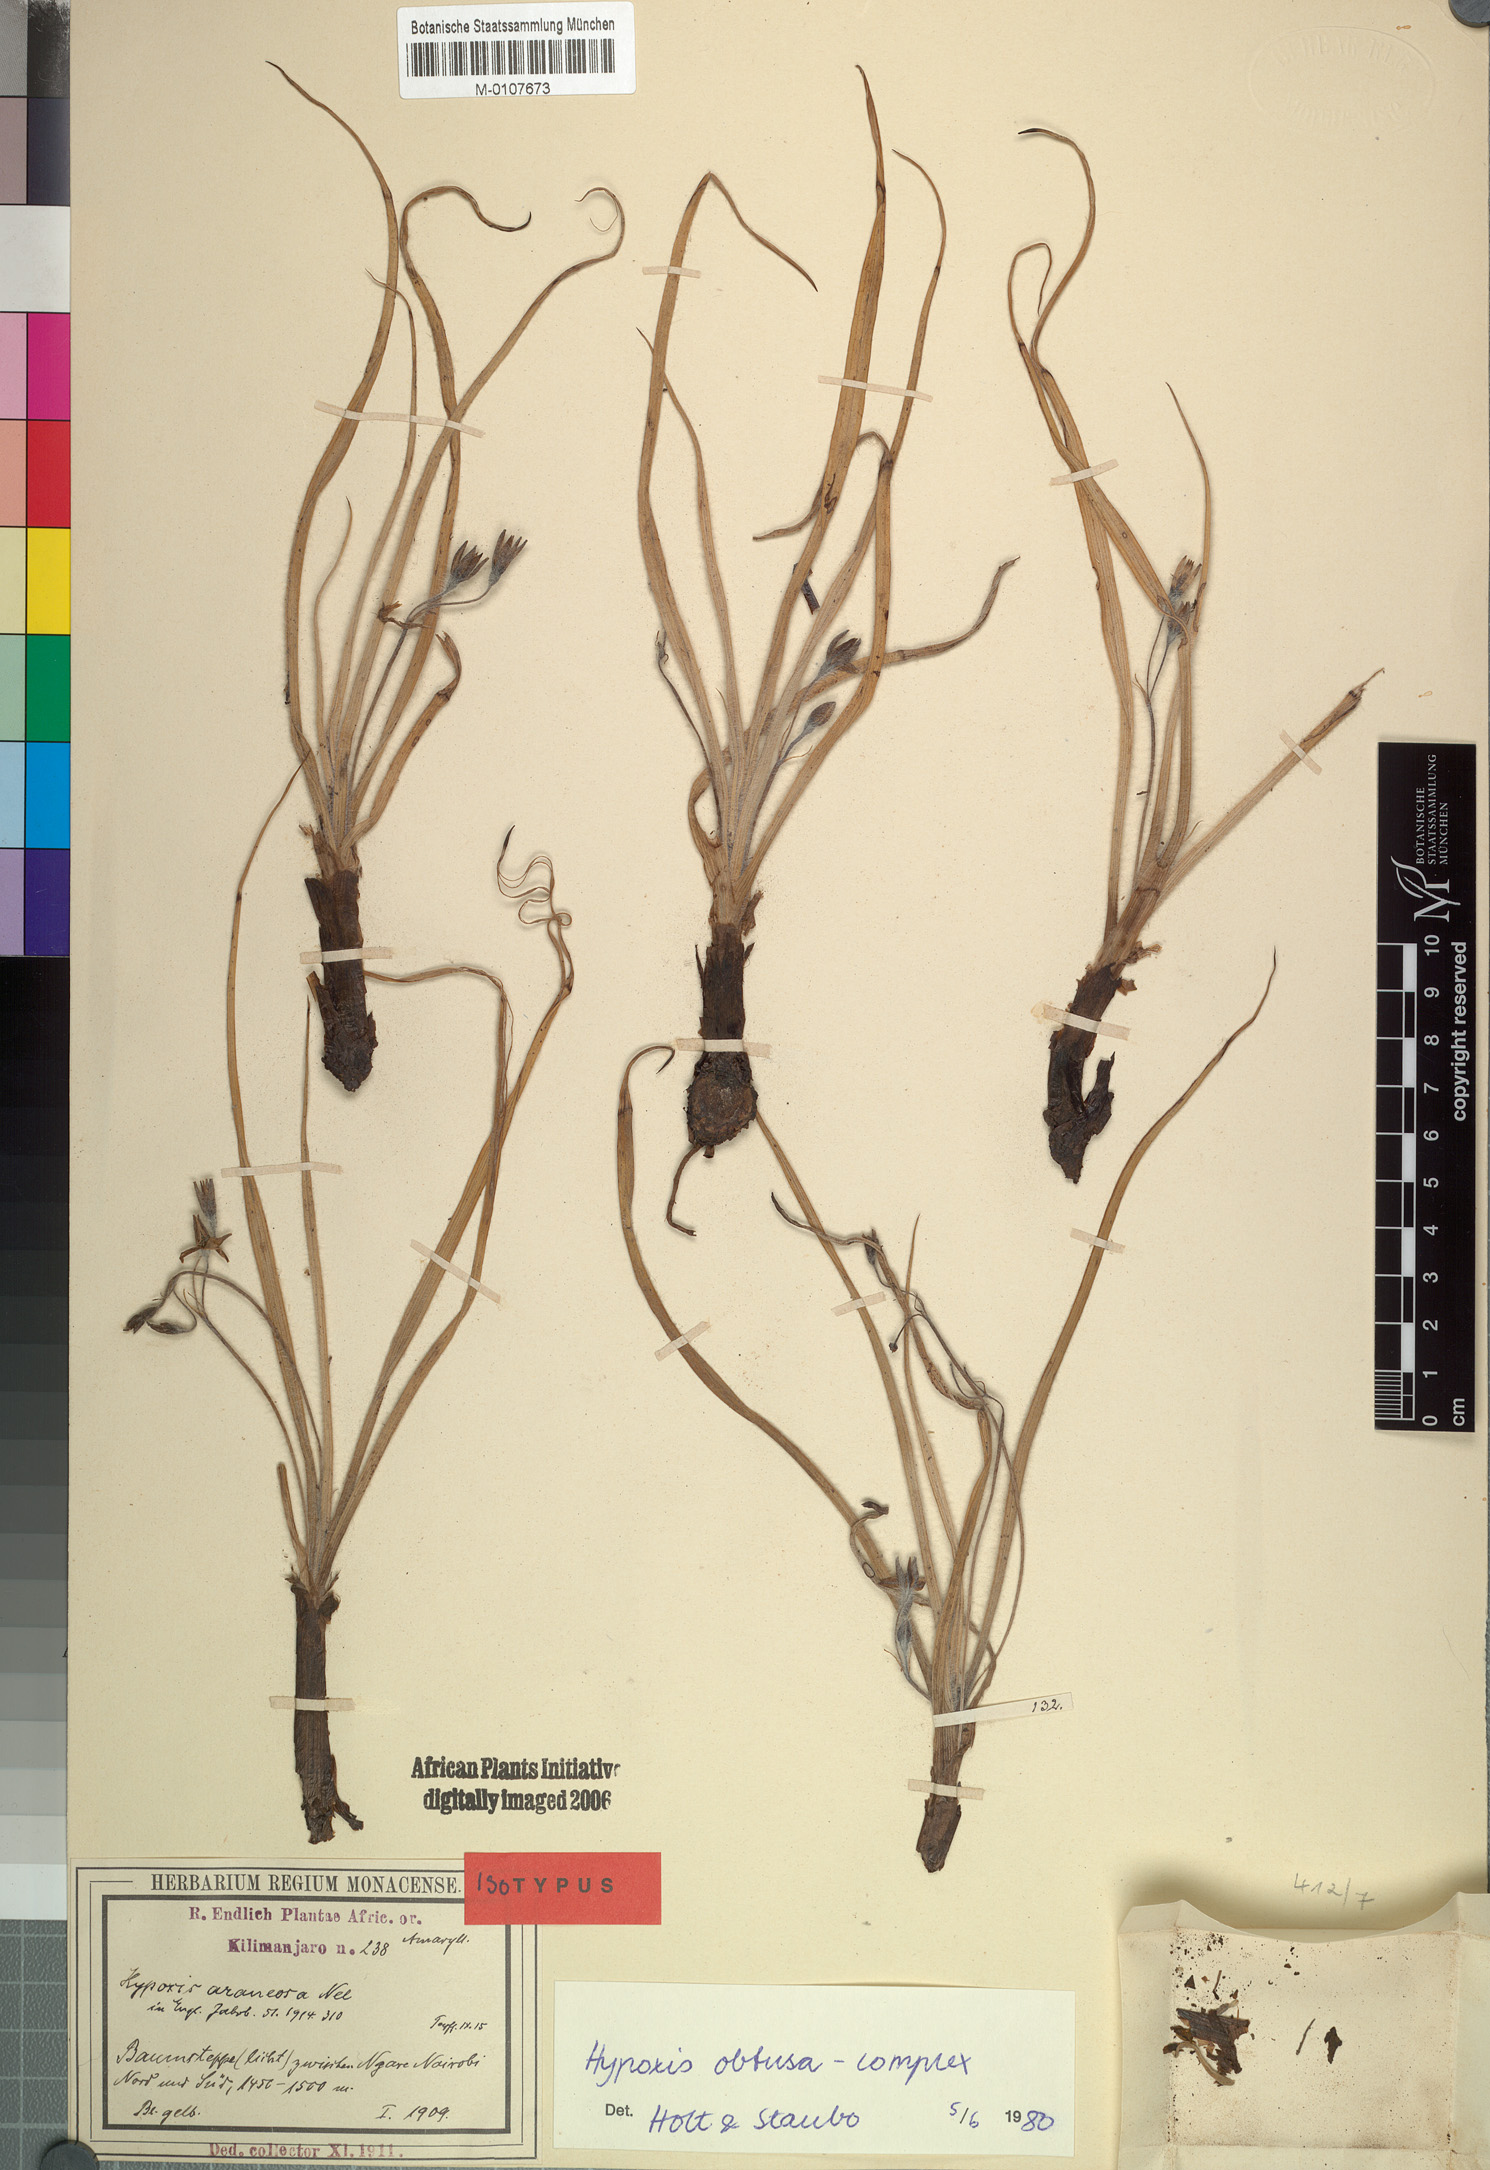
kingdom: Plantae
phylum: Tracheophyta
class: Liliopsida
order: Asparagales
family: Hypoxidaceae
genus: Hypoxis
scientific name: Hypoxis obtusa
